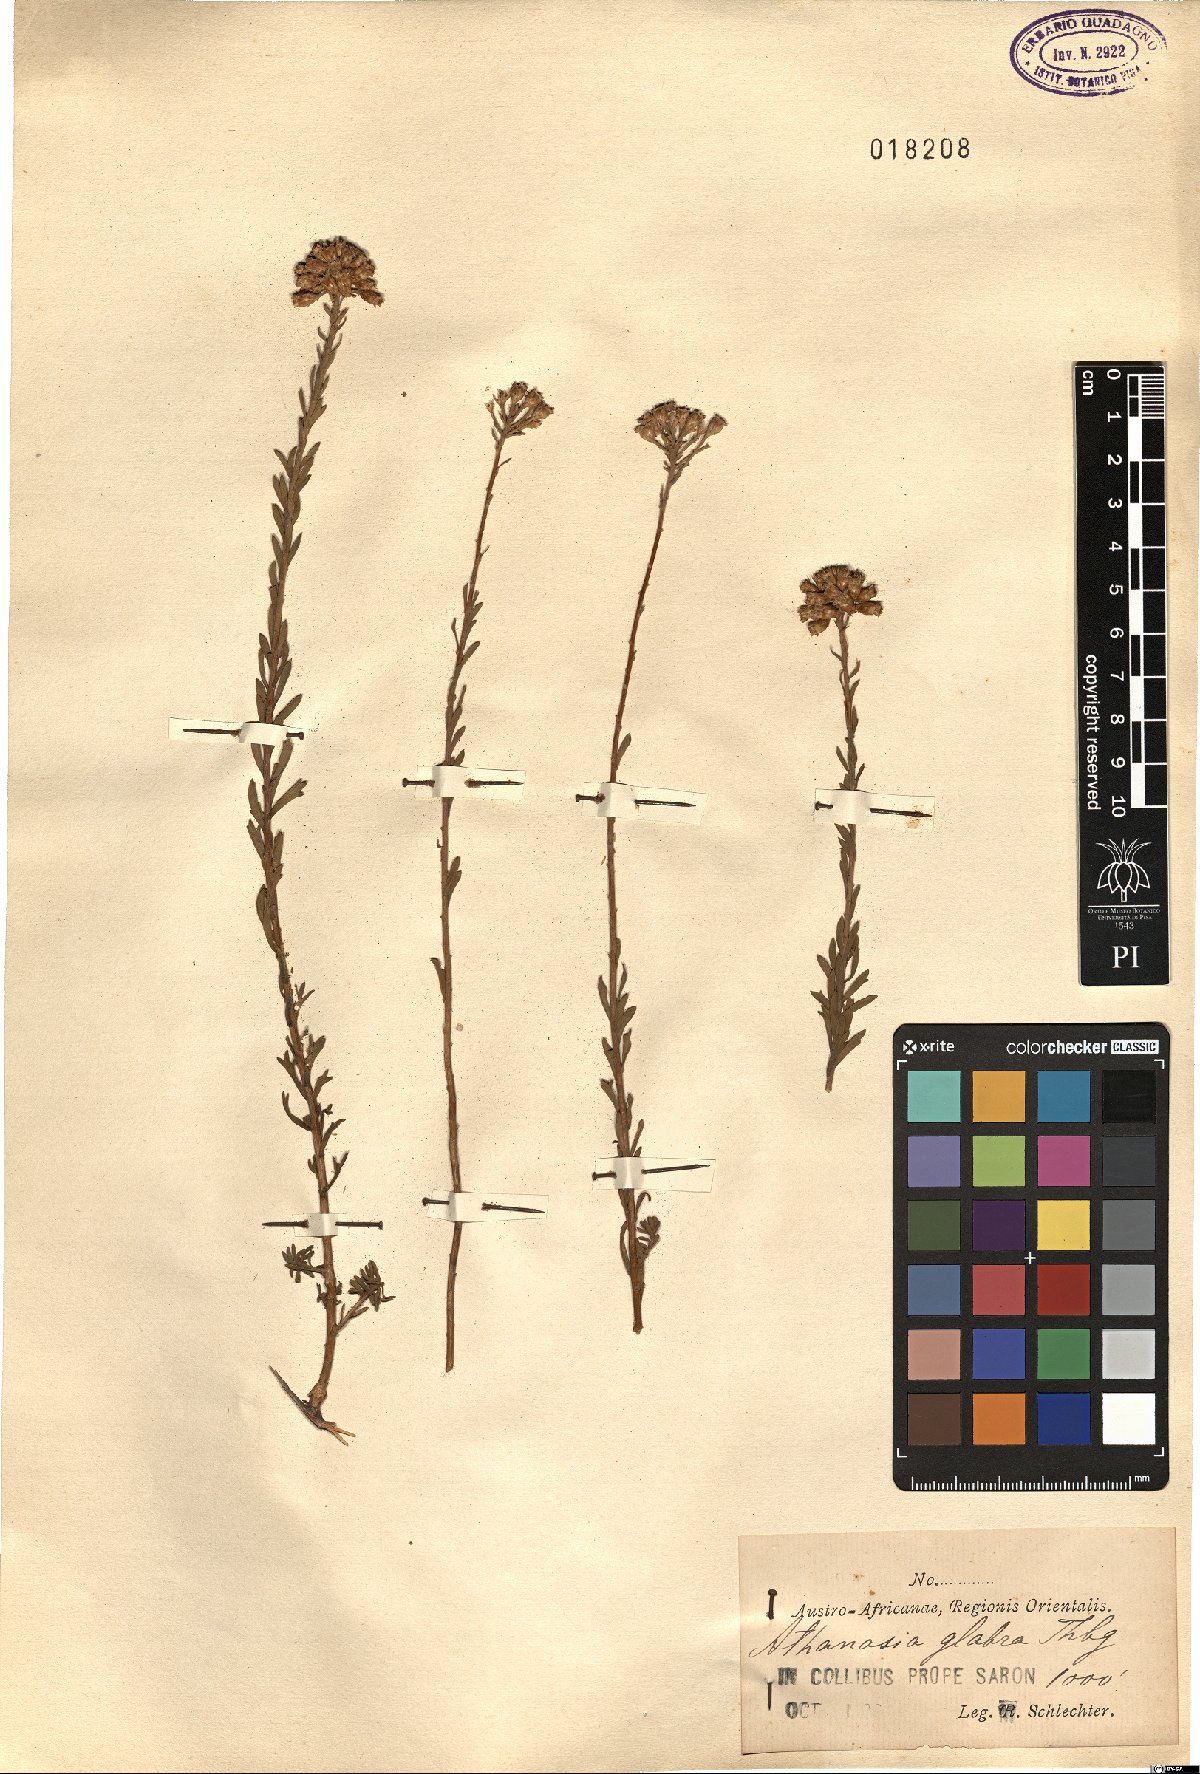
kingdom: Plantae
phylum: Tracheophyta
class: Magnoliopsida
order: Asterales
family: Asteraceae
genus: Athanasia
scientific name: Athanasia capitata
